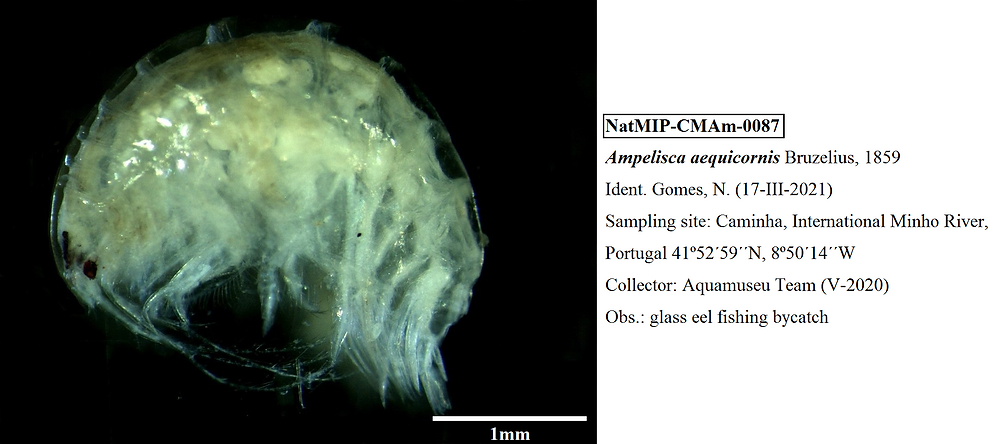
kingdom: Animalia
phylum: Arthropoda
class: Malacostraca
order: Amphipoda
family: Ampeliscidae
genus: Ampelisca
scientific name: Ampelisca aequicornis
